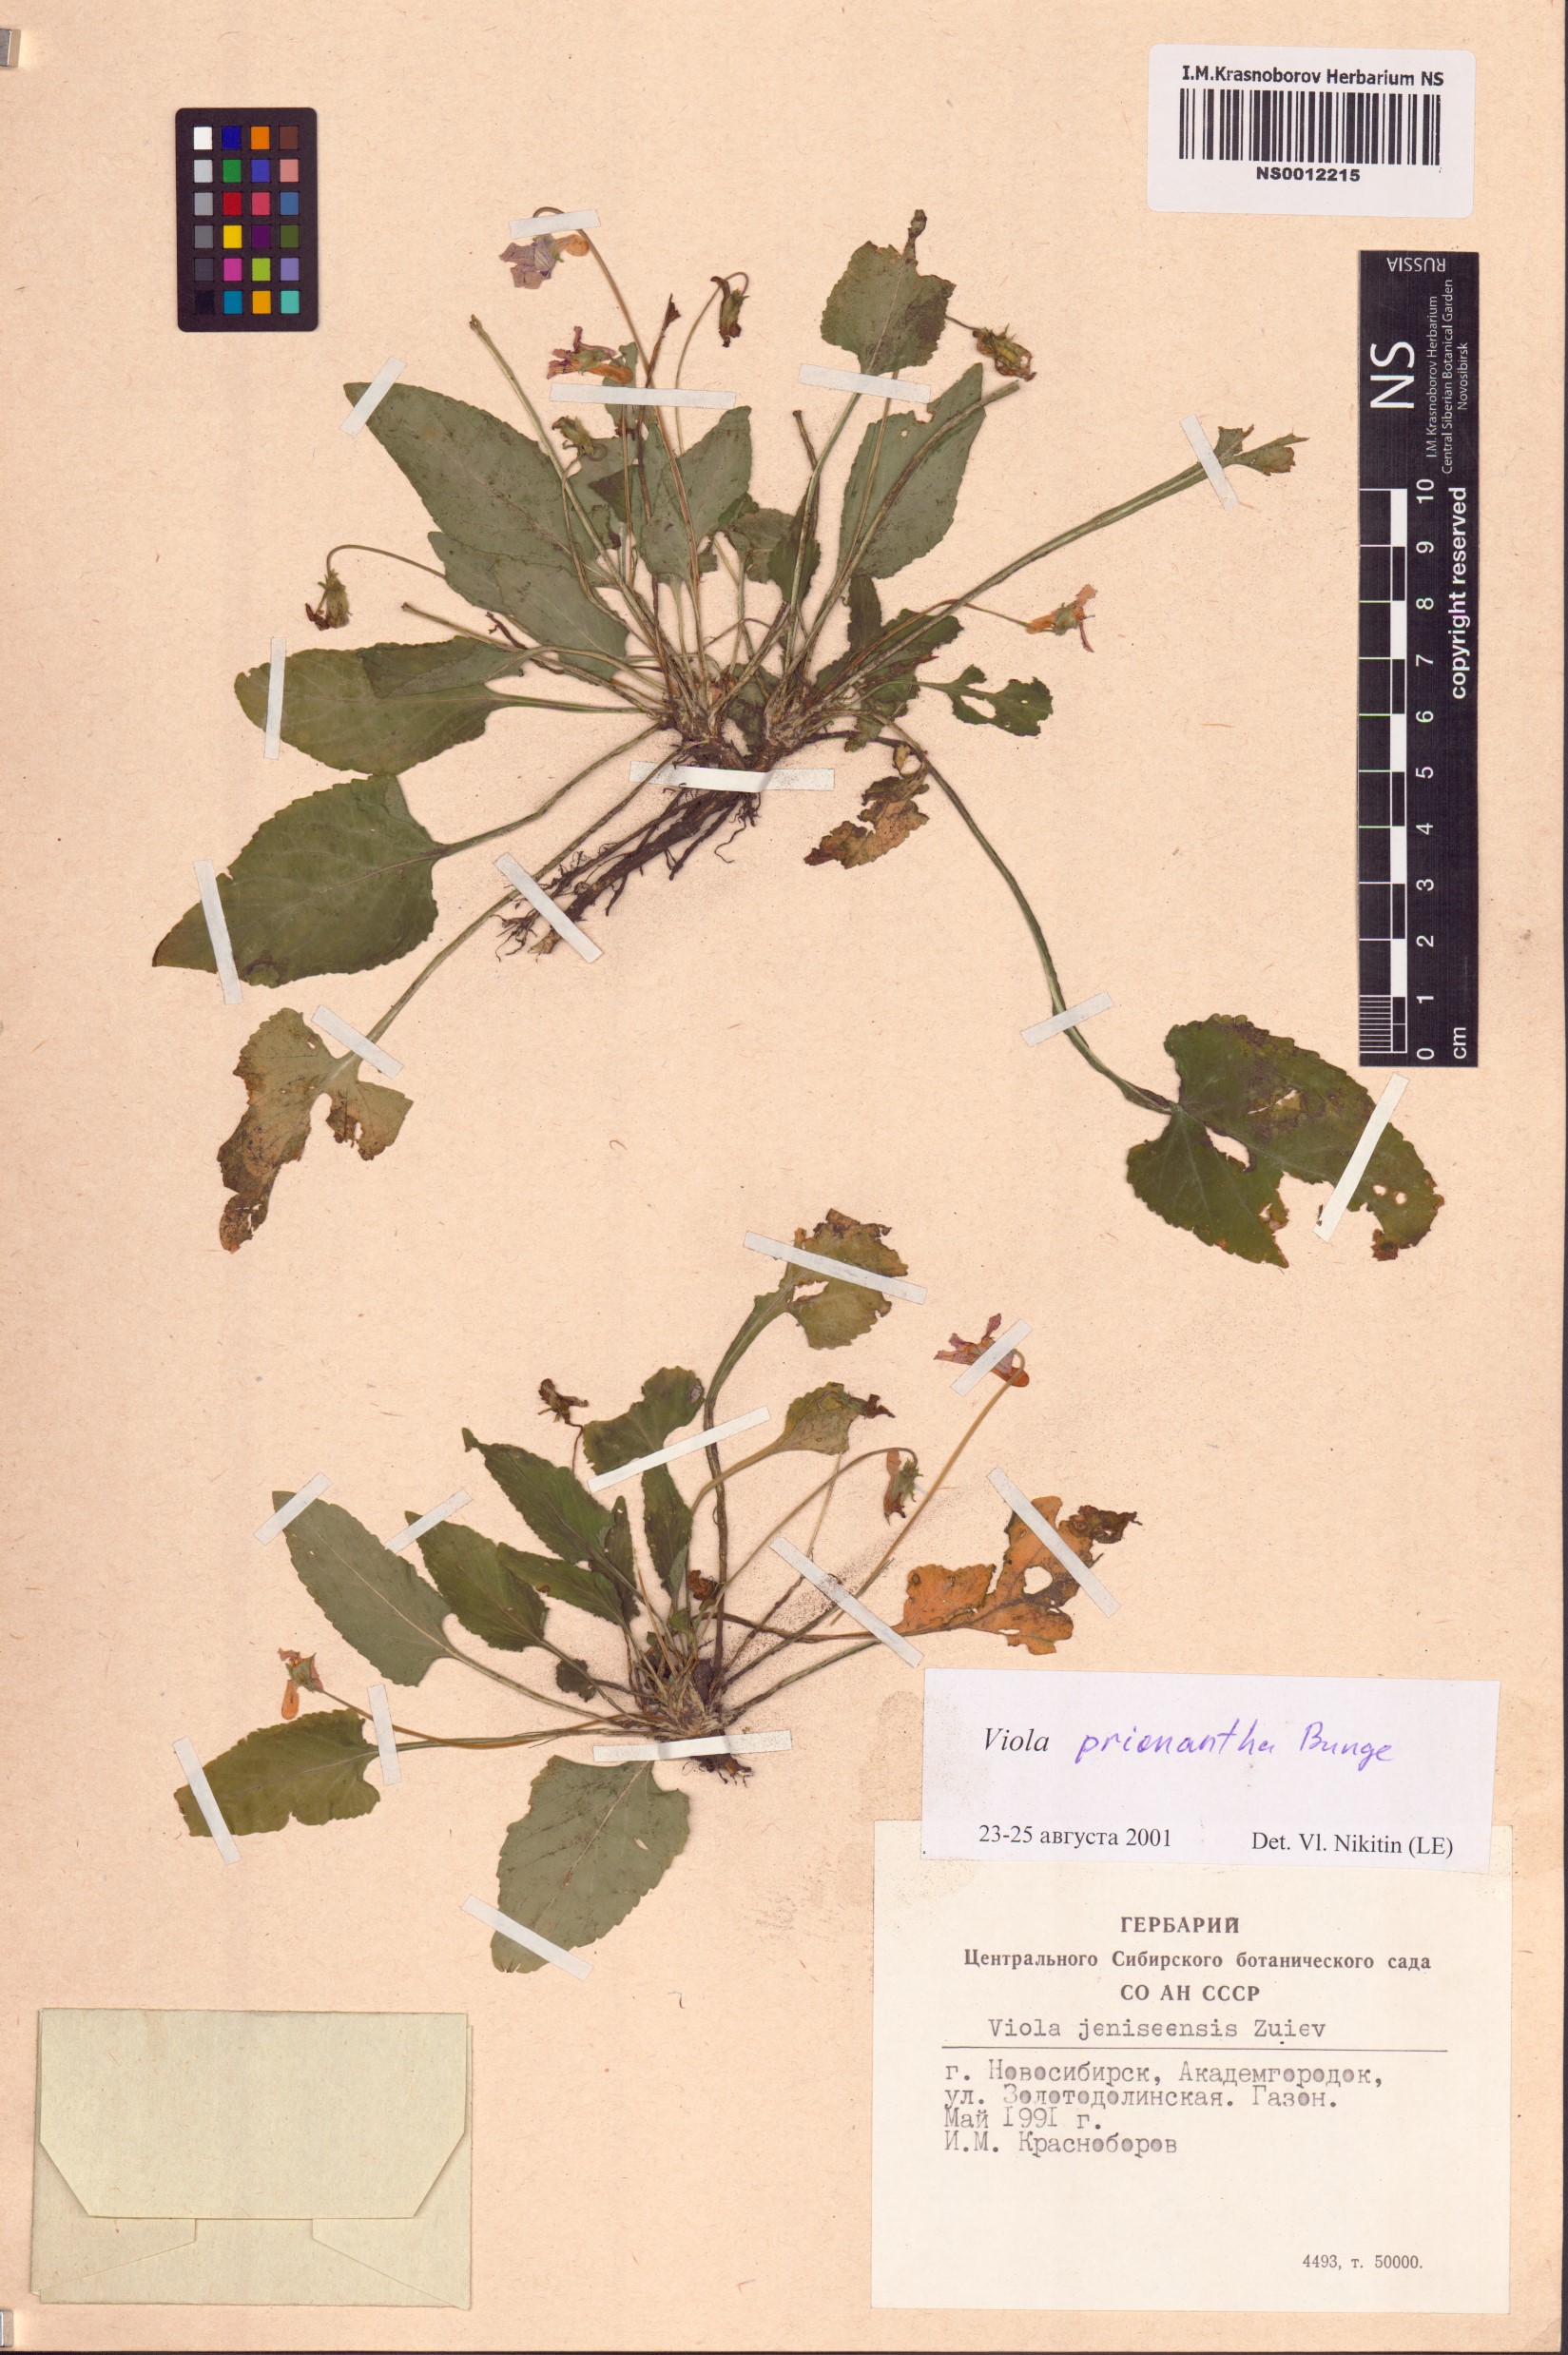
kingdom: Plantae
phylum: Tracheophyta
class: Magnoliopsida
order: Malpighiales
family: Violaceae
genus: Viola
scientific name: Viola prionantha
